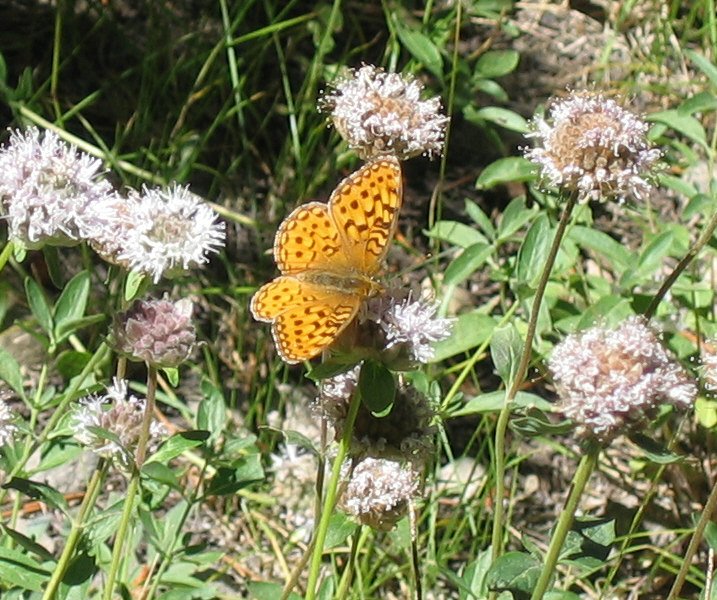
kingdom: Animalia
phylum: Arthropoda
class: Insecta
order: Lepidoptera
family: Nymphalidae
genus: Speyeria
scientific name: Speyeria mormonia
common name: Mormon Fritillary
